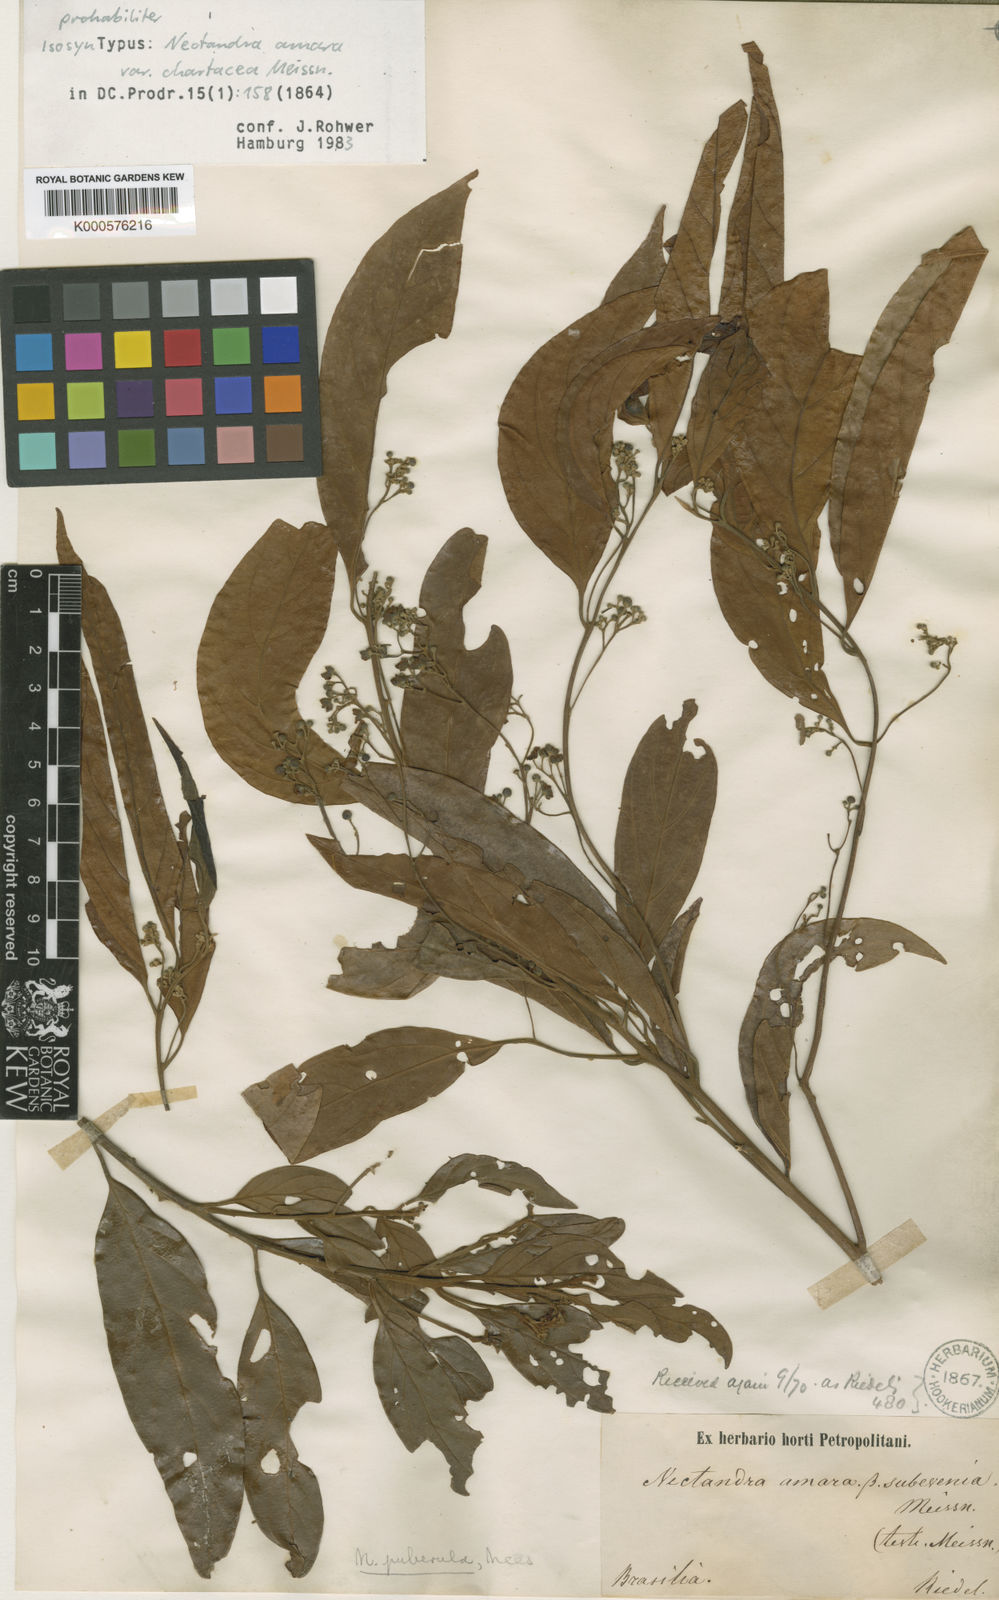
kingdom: Plantae
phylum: Tracheophyta
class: Magnoliopsida
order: Laurales
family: Lauraceae
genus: Nectandra
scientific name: Nectandra puberula
